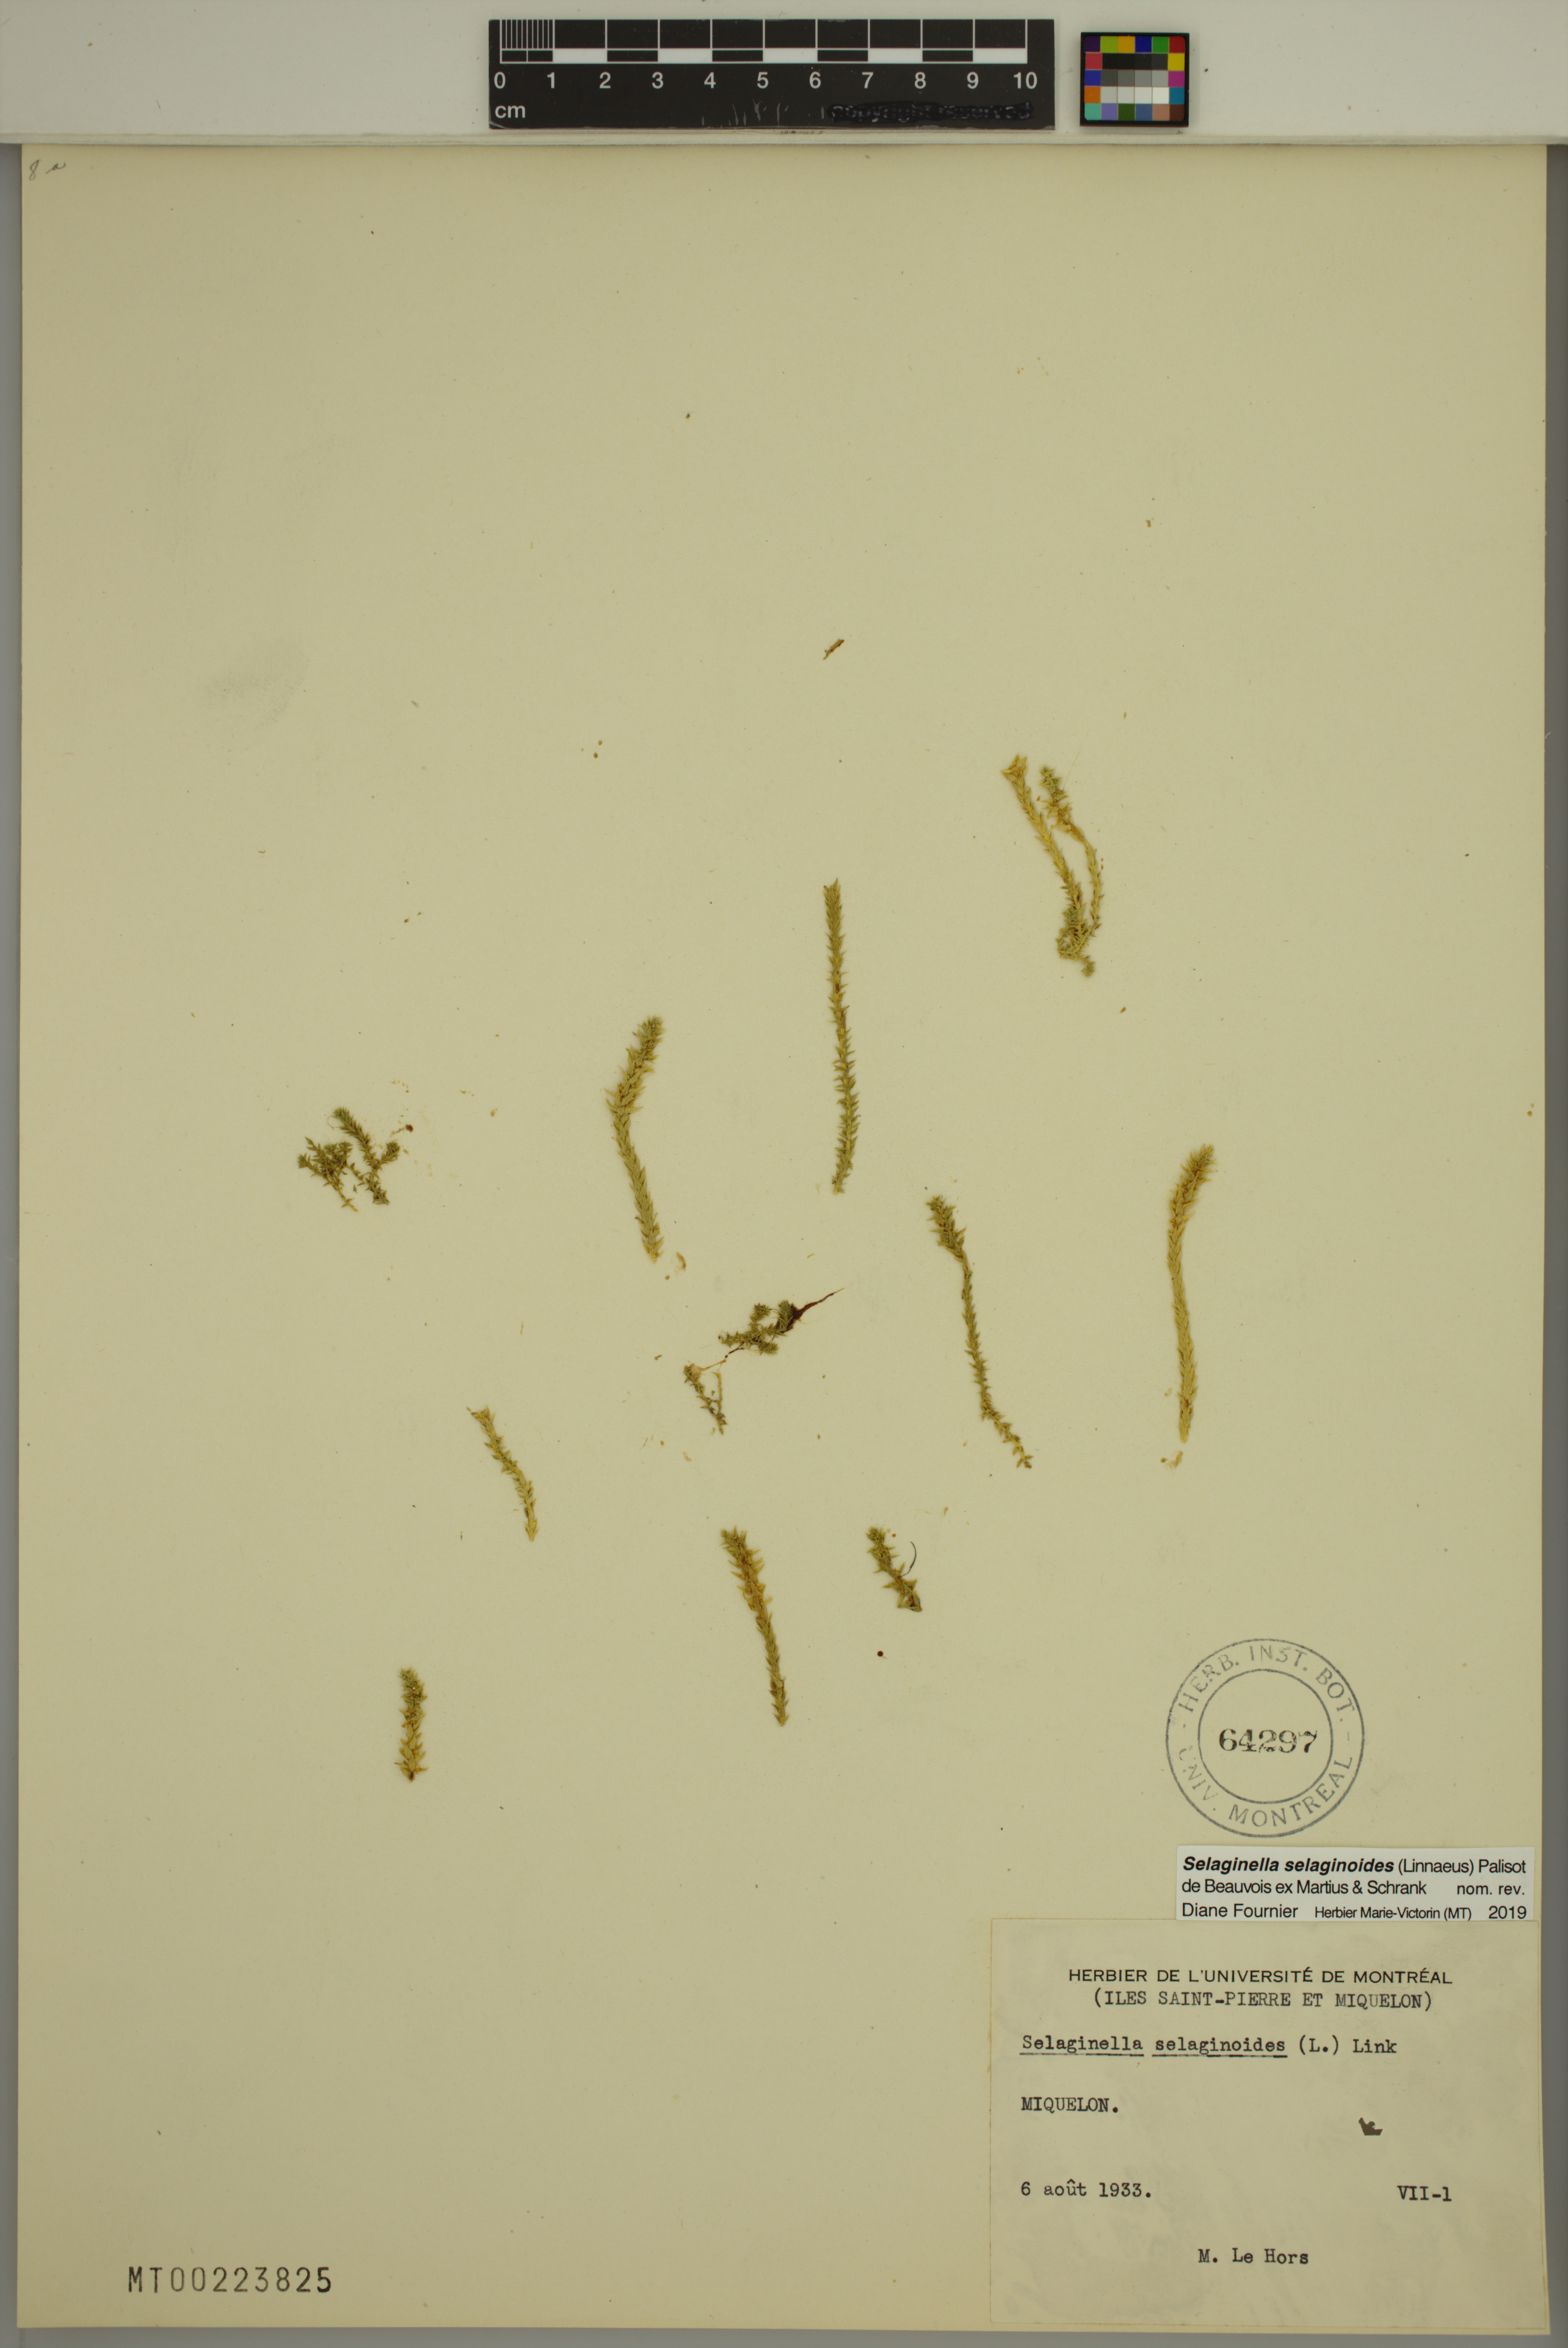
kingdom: Plantae
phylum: Tracheophyta
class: Lycopodiopsida
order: Selaginellales
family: Selaginellaceae
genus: Selaginella
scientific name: Selaginella selaginoides
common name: Prickly mountain-moss
